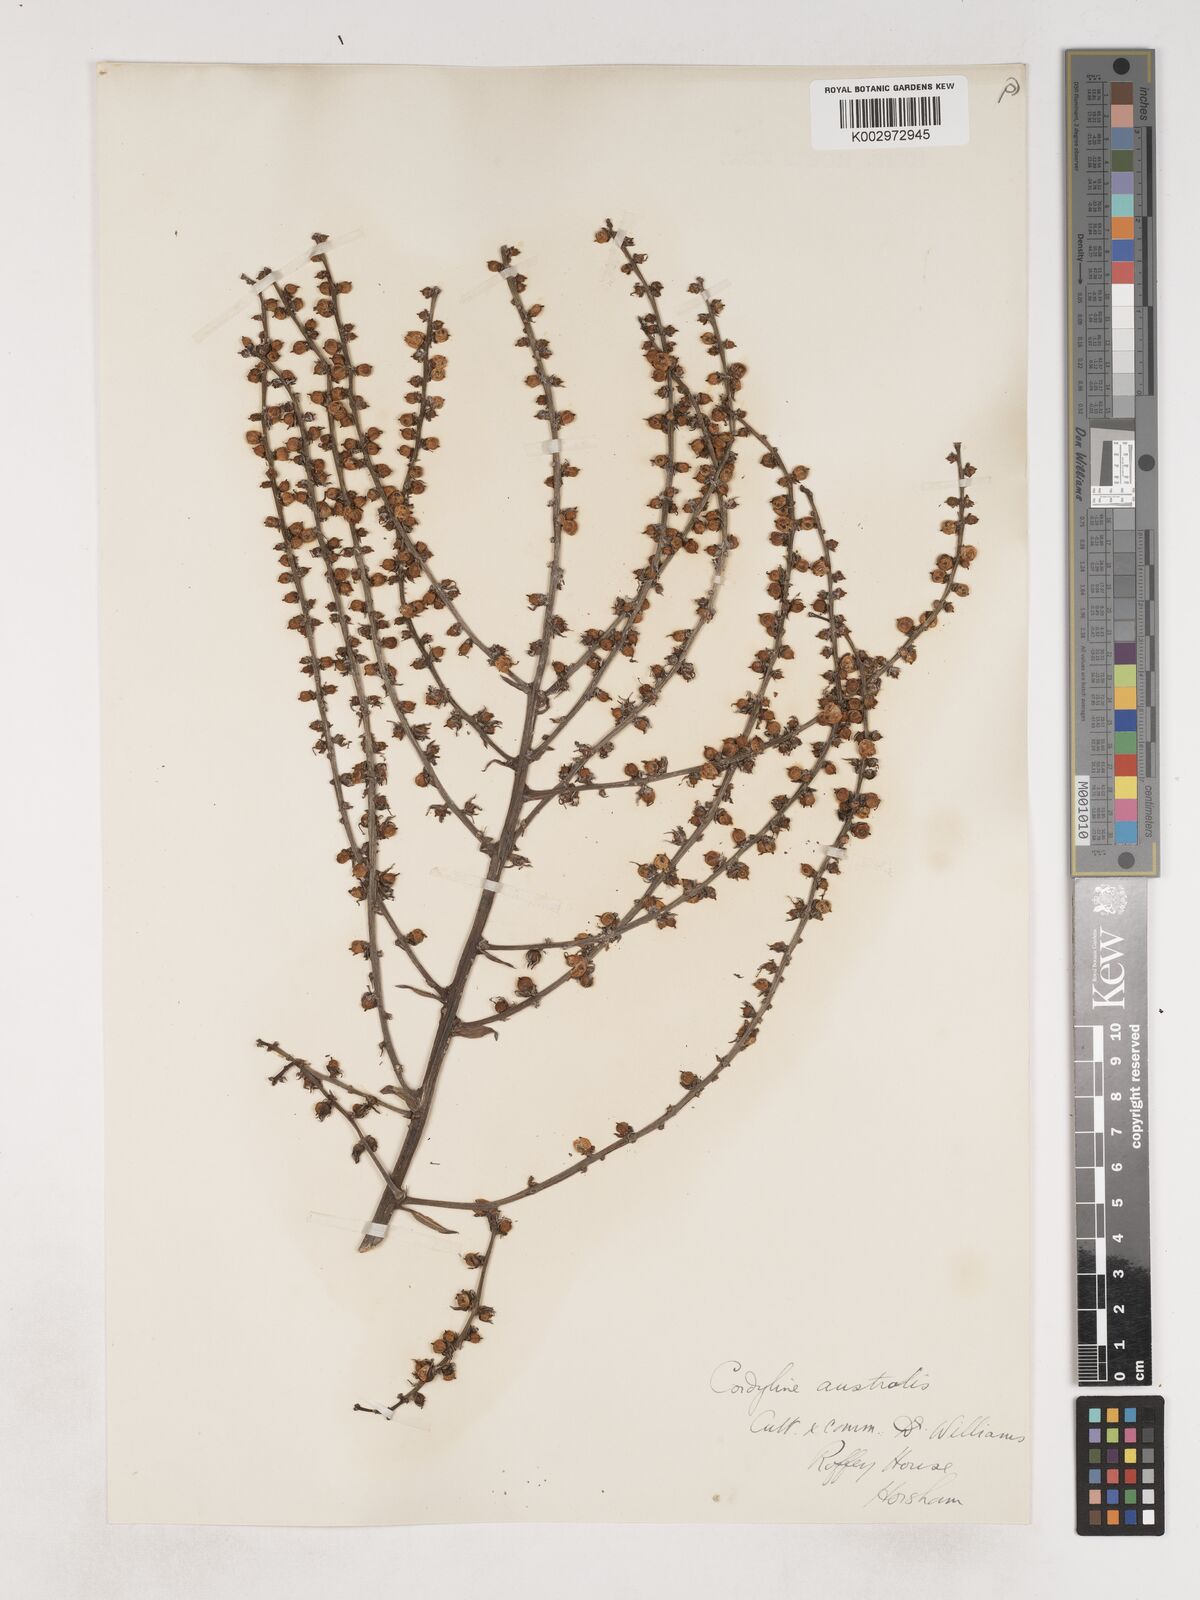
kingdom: Plantae
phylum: Tracheophyta
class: Liliopsida
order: Asparagales
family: Asparagaceae
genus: Cordyline
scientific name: Cordyline
